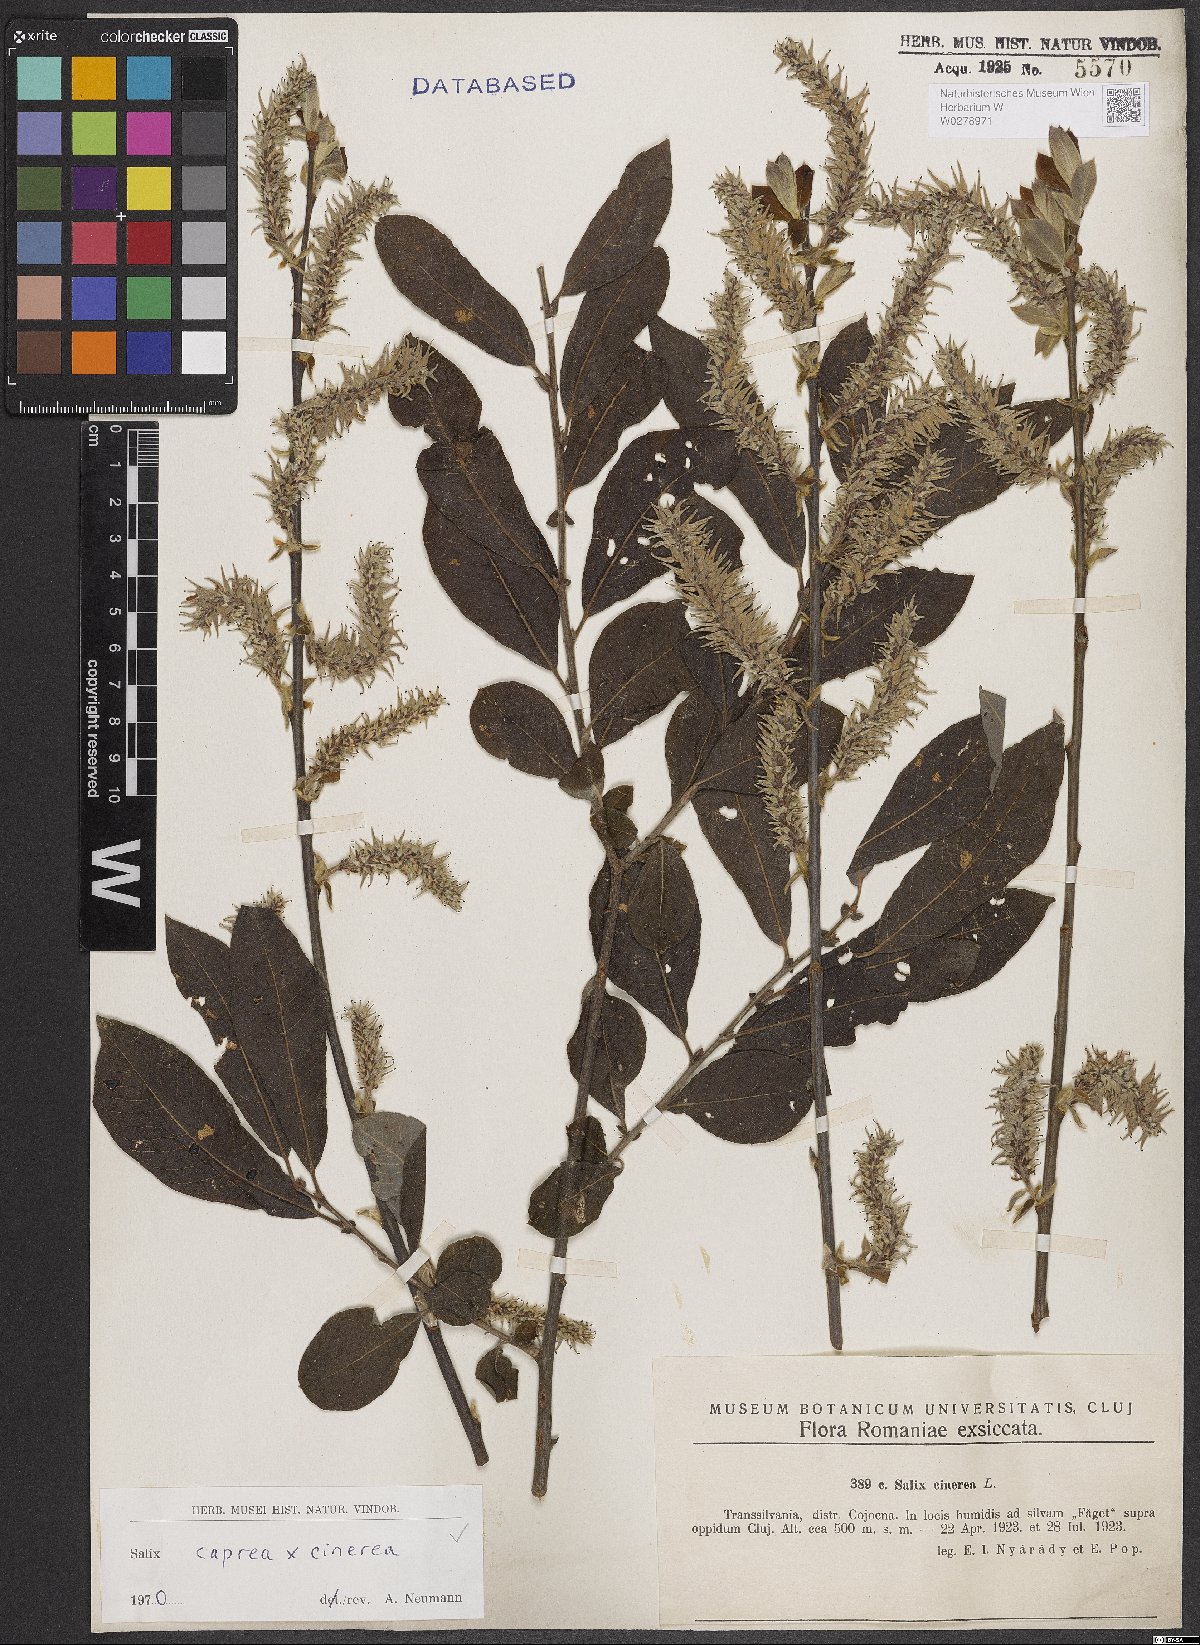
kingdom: Plantae
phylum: Tracheophyta
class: Magnoliopsida
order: Malpighiales
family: Salicaceae
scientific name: Salicaceae
